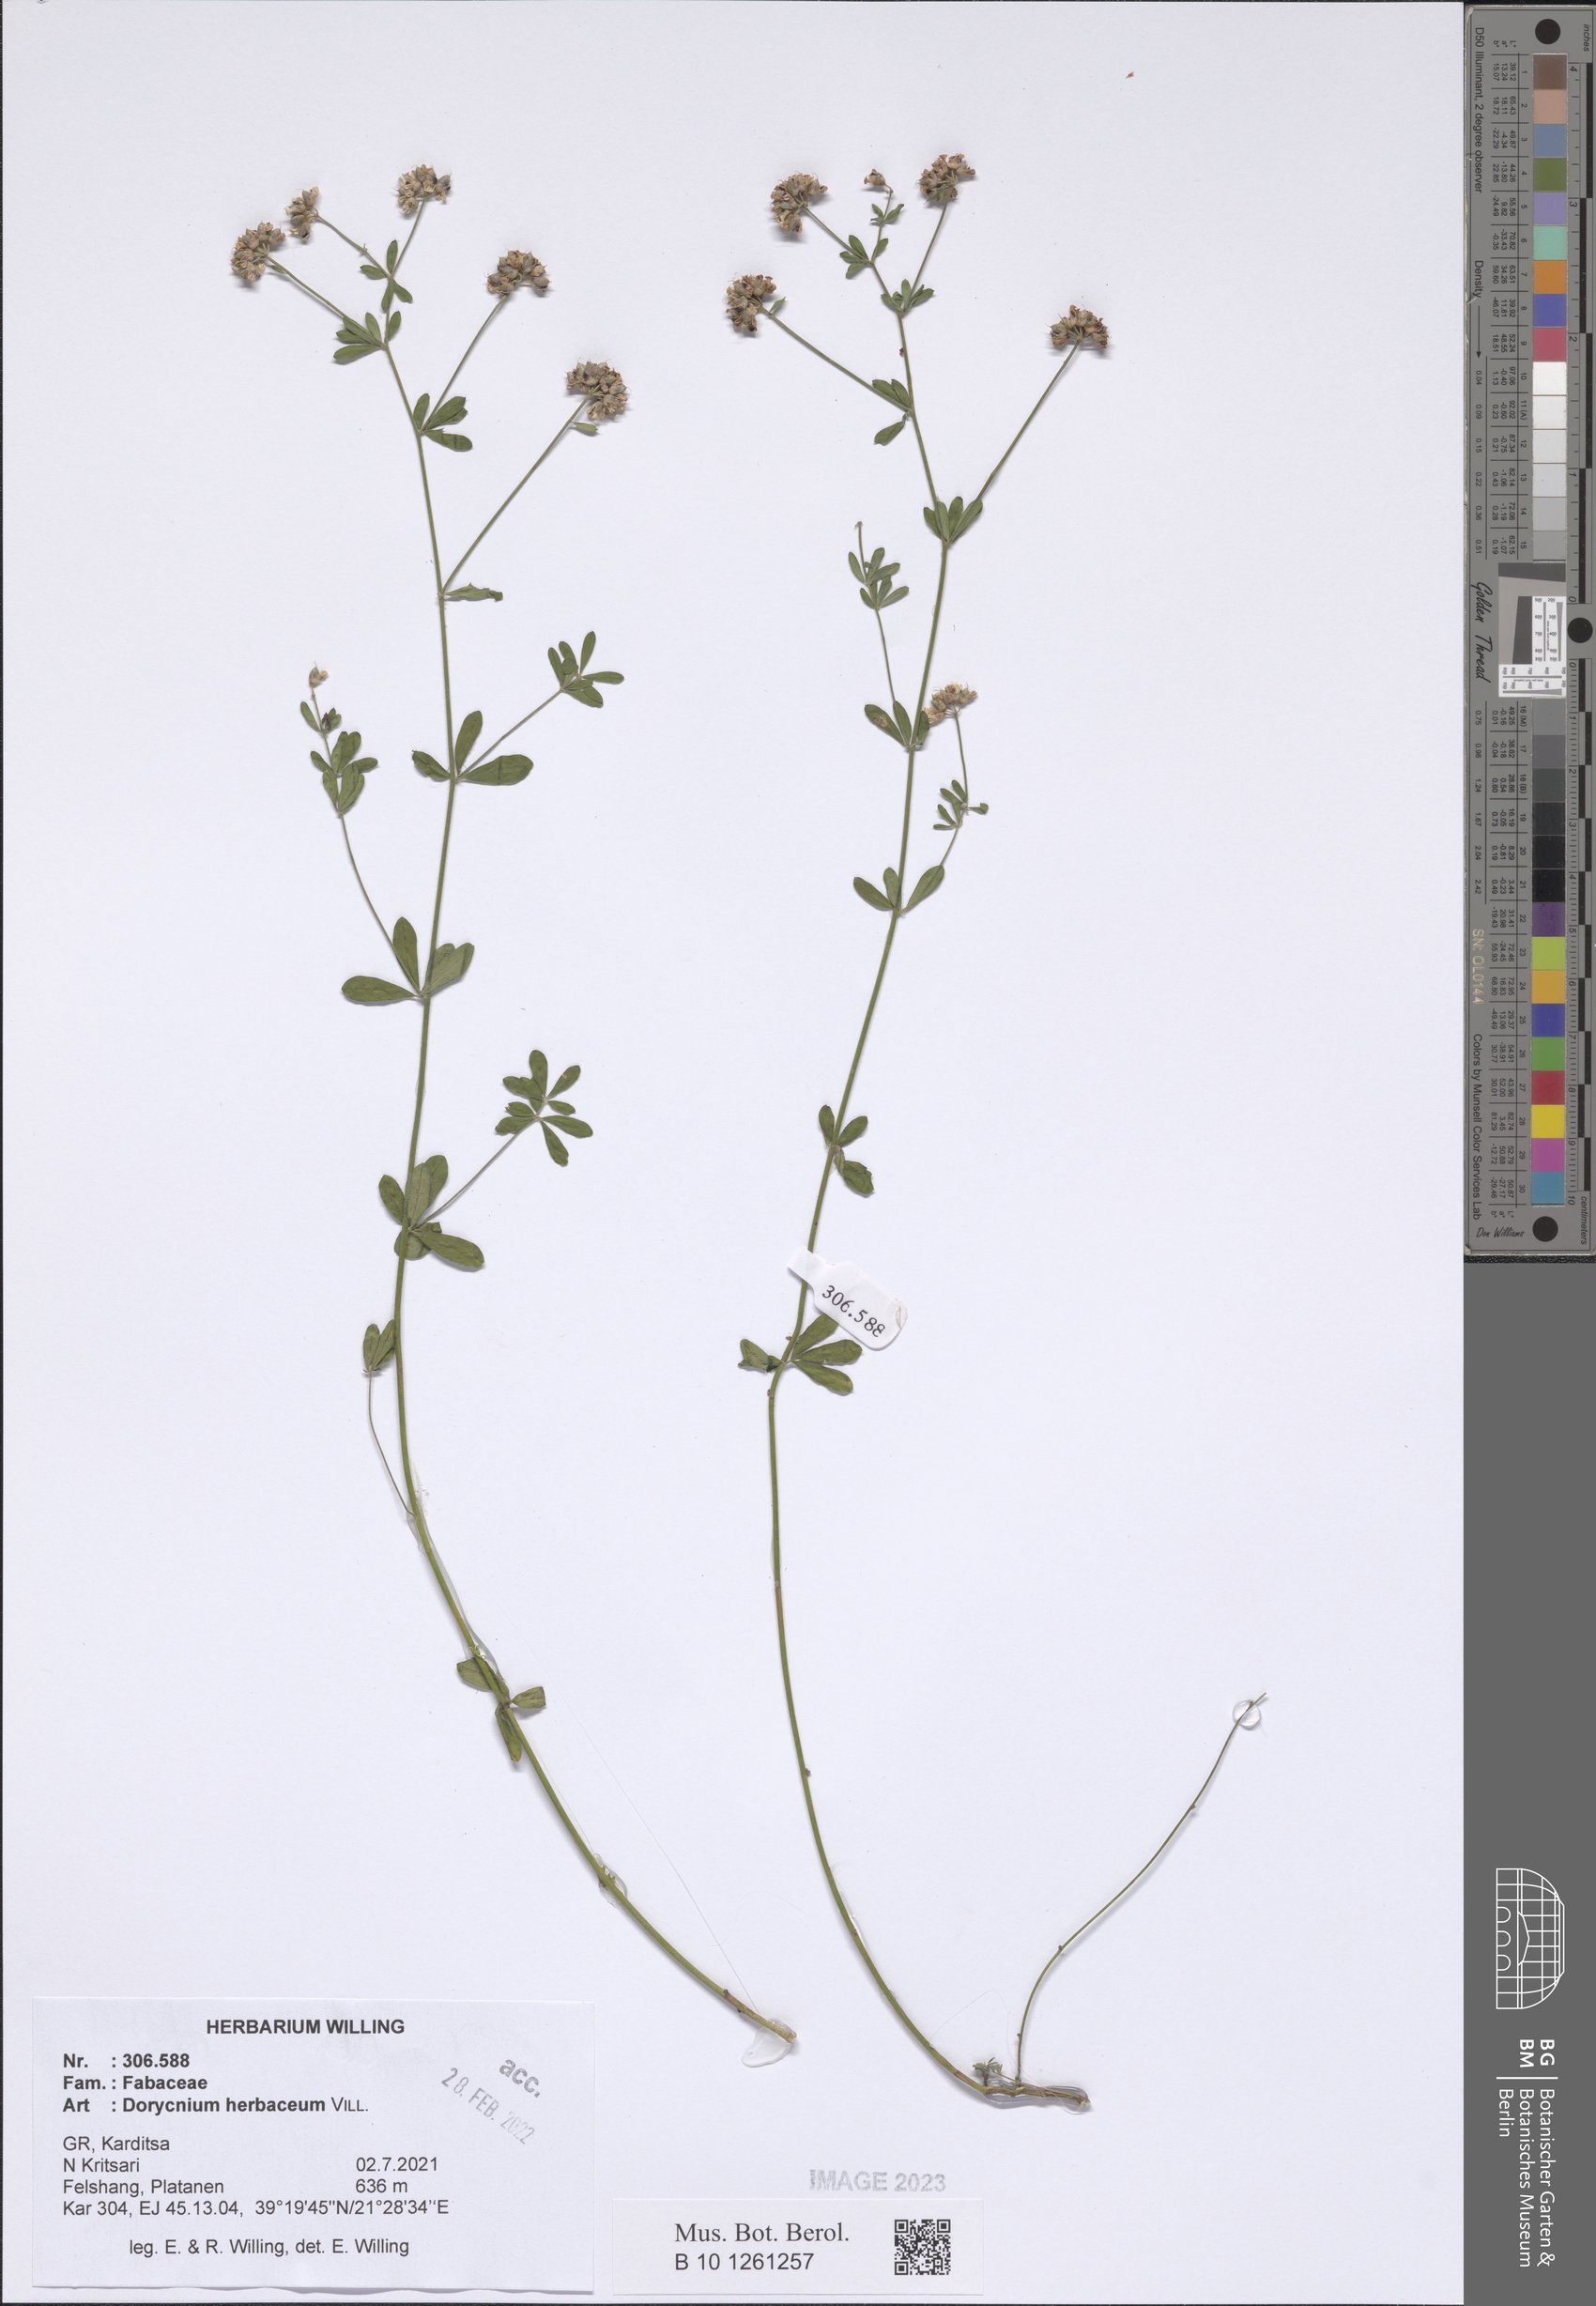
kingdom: Plantae
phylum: Tracheophyta
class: Magnoliopsida
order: Fabales
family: Fabaceae
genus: Lotus
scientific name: Lotus herbaceus
